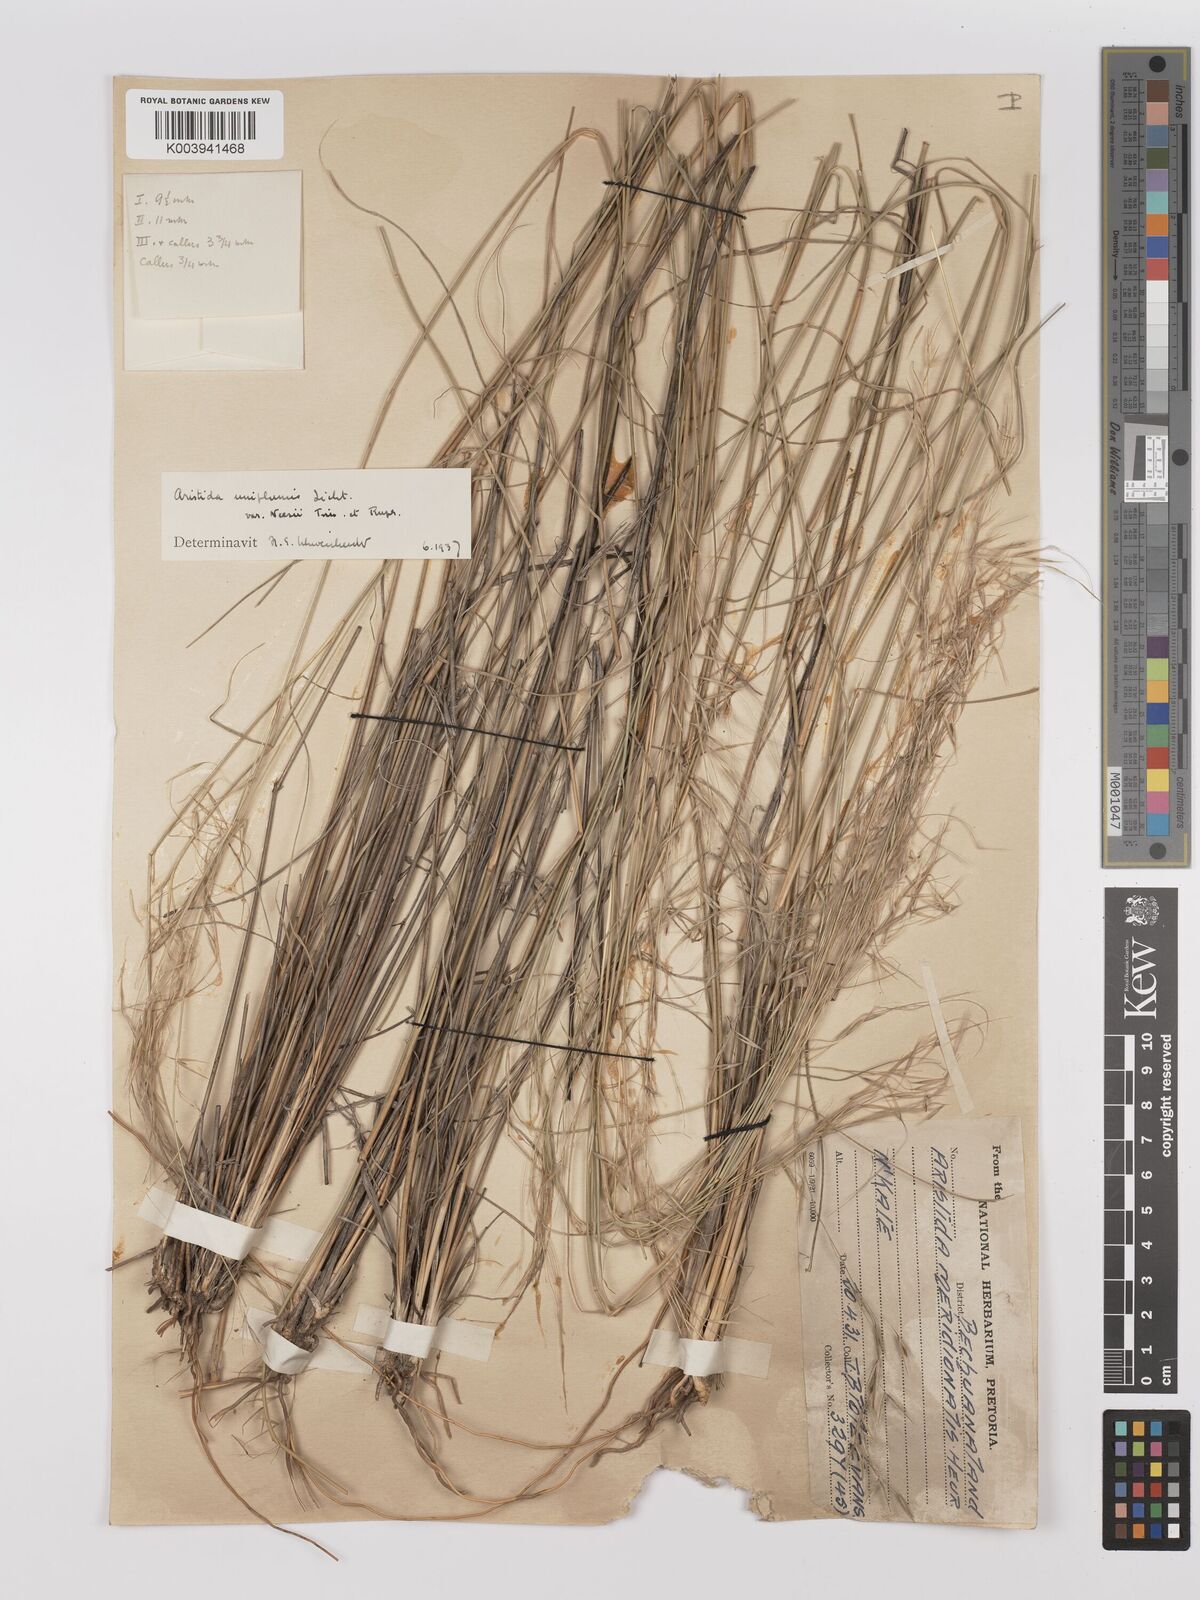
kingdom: Plantae
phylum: Tracheophyta
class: Liliopsida
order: Poales
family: Poaceae
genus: Stipagrostis
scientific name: Stipagrostis uniplumis
